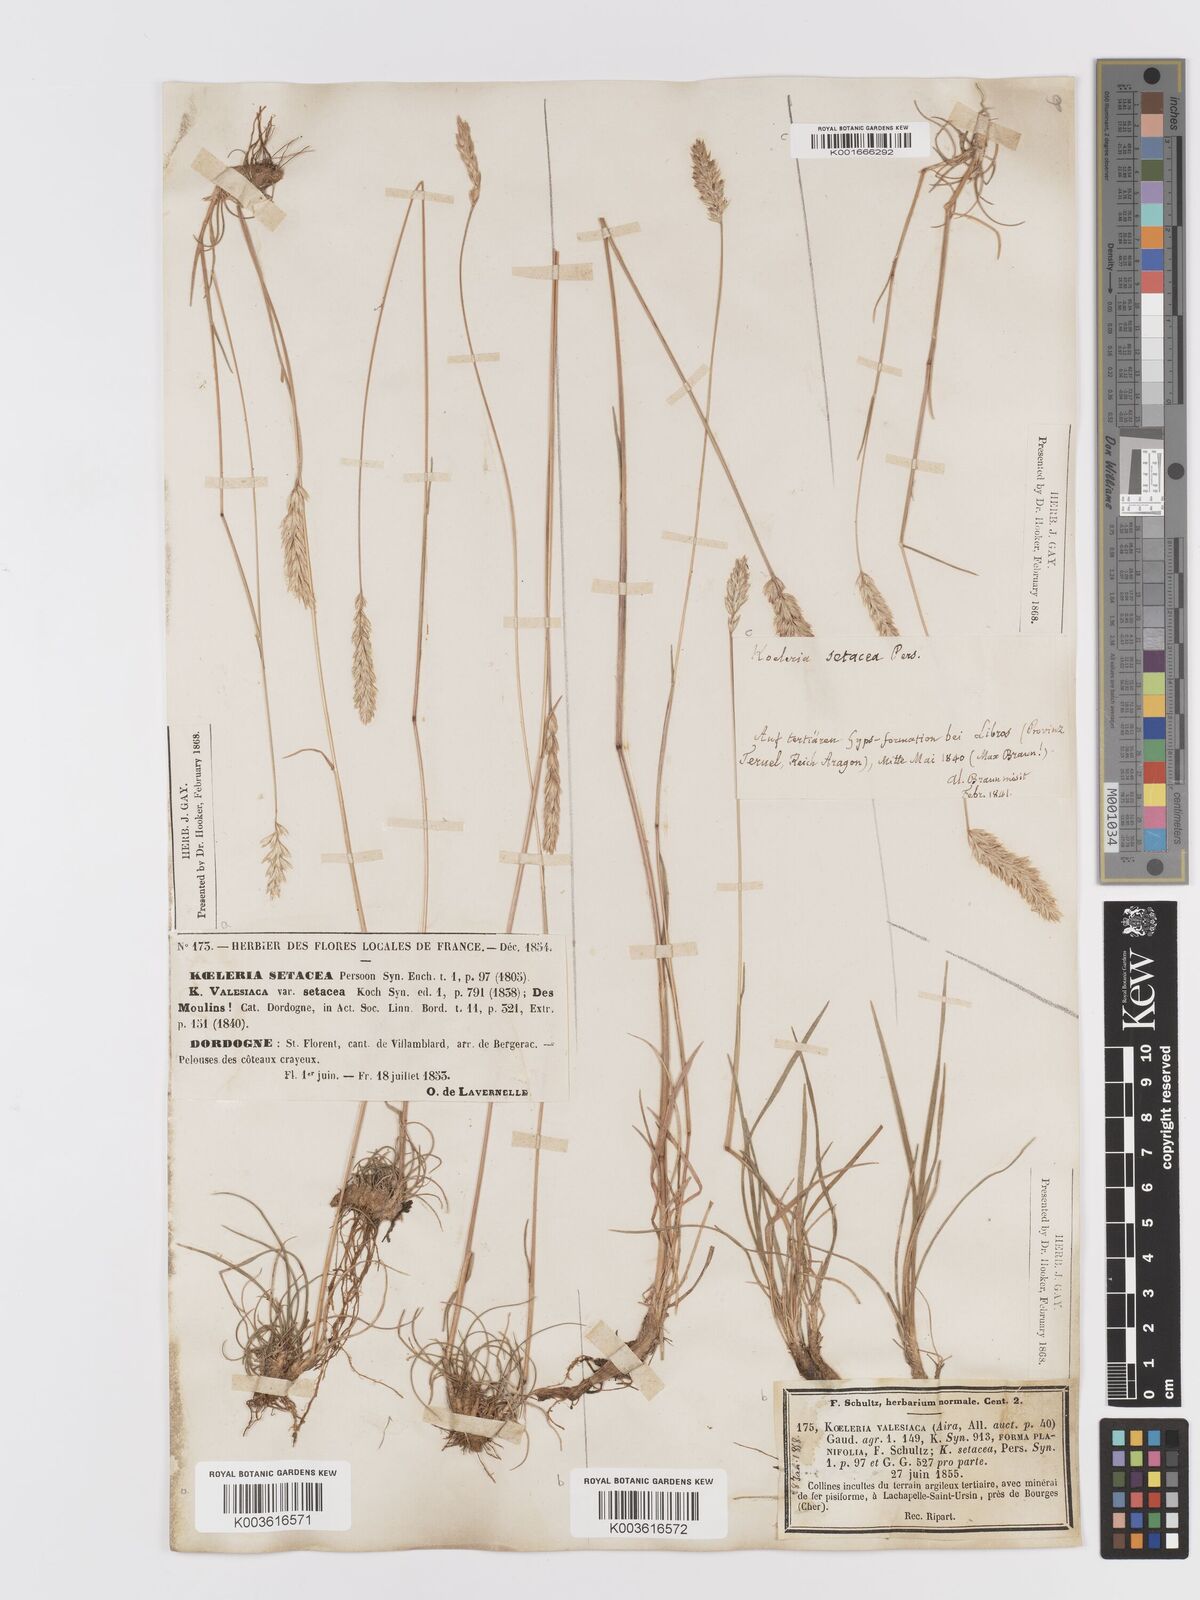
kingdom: Plantae
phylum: Tracheophyta
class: Liliopsida
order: Poales
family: Poaceae
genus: Koeleria
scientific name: Koeleria vallesiana
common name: Somerset hair-grass
